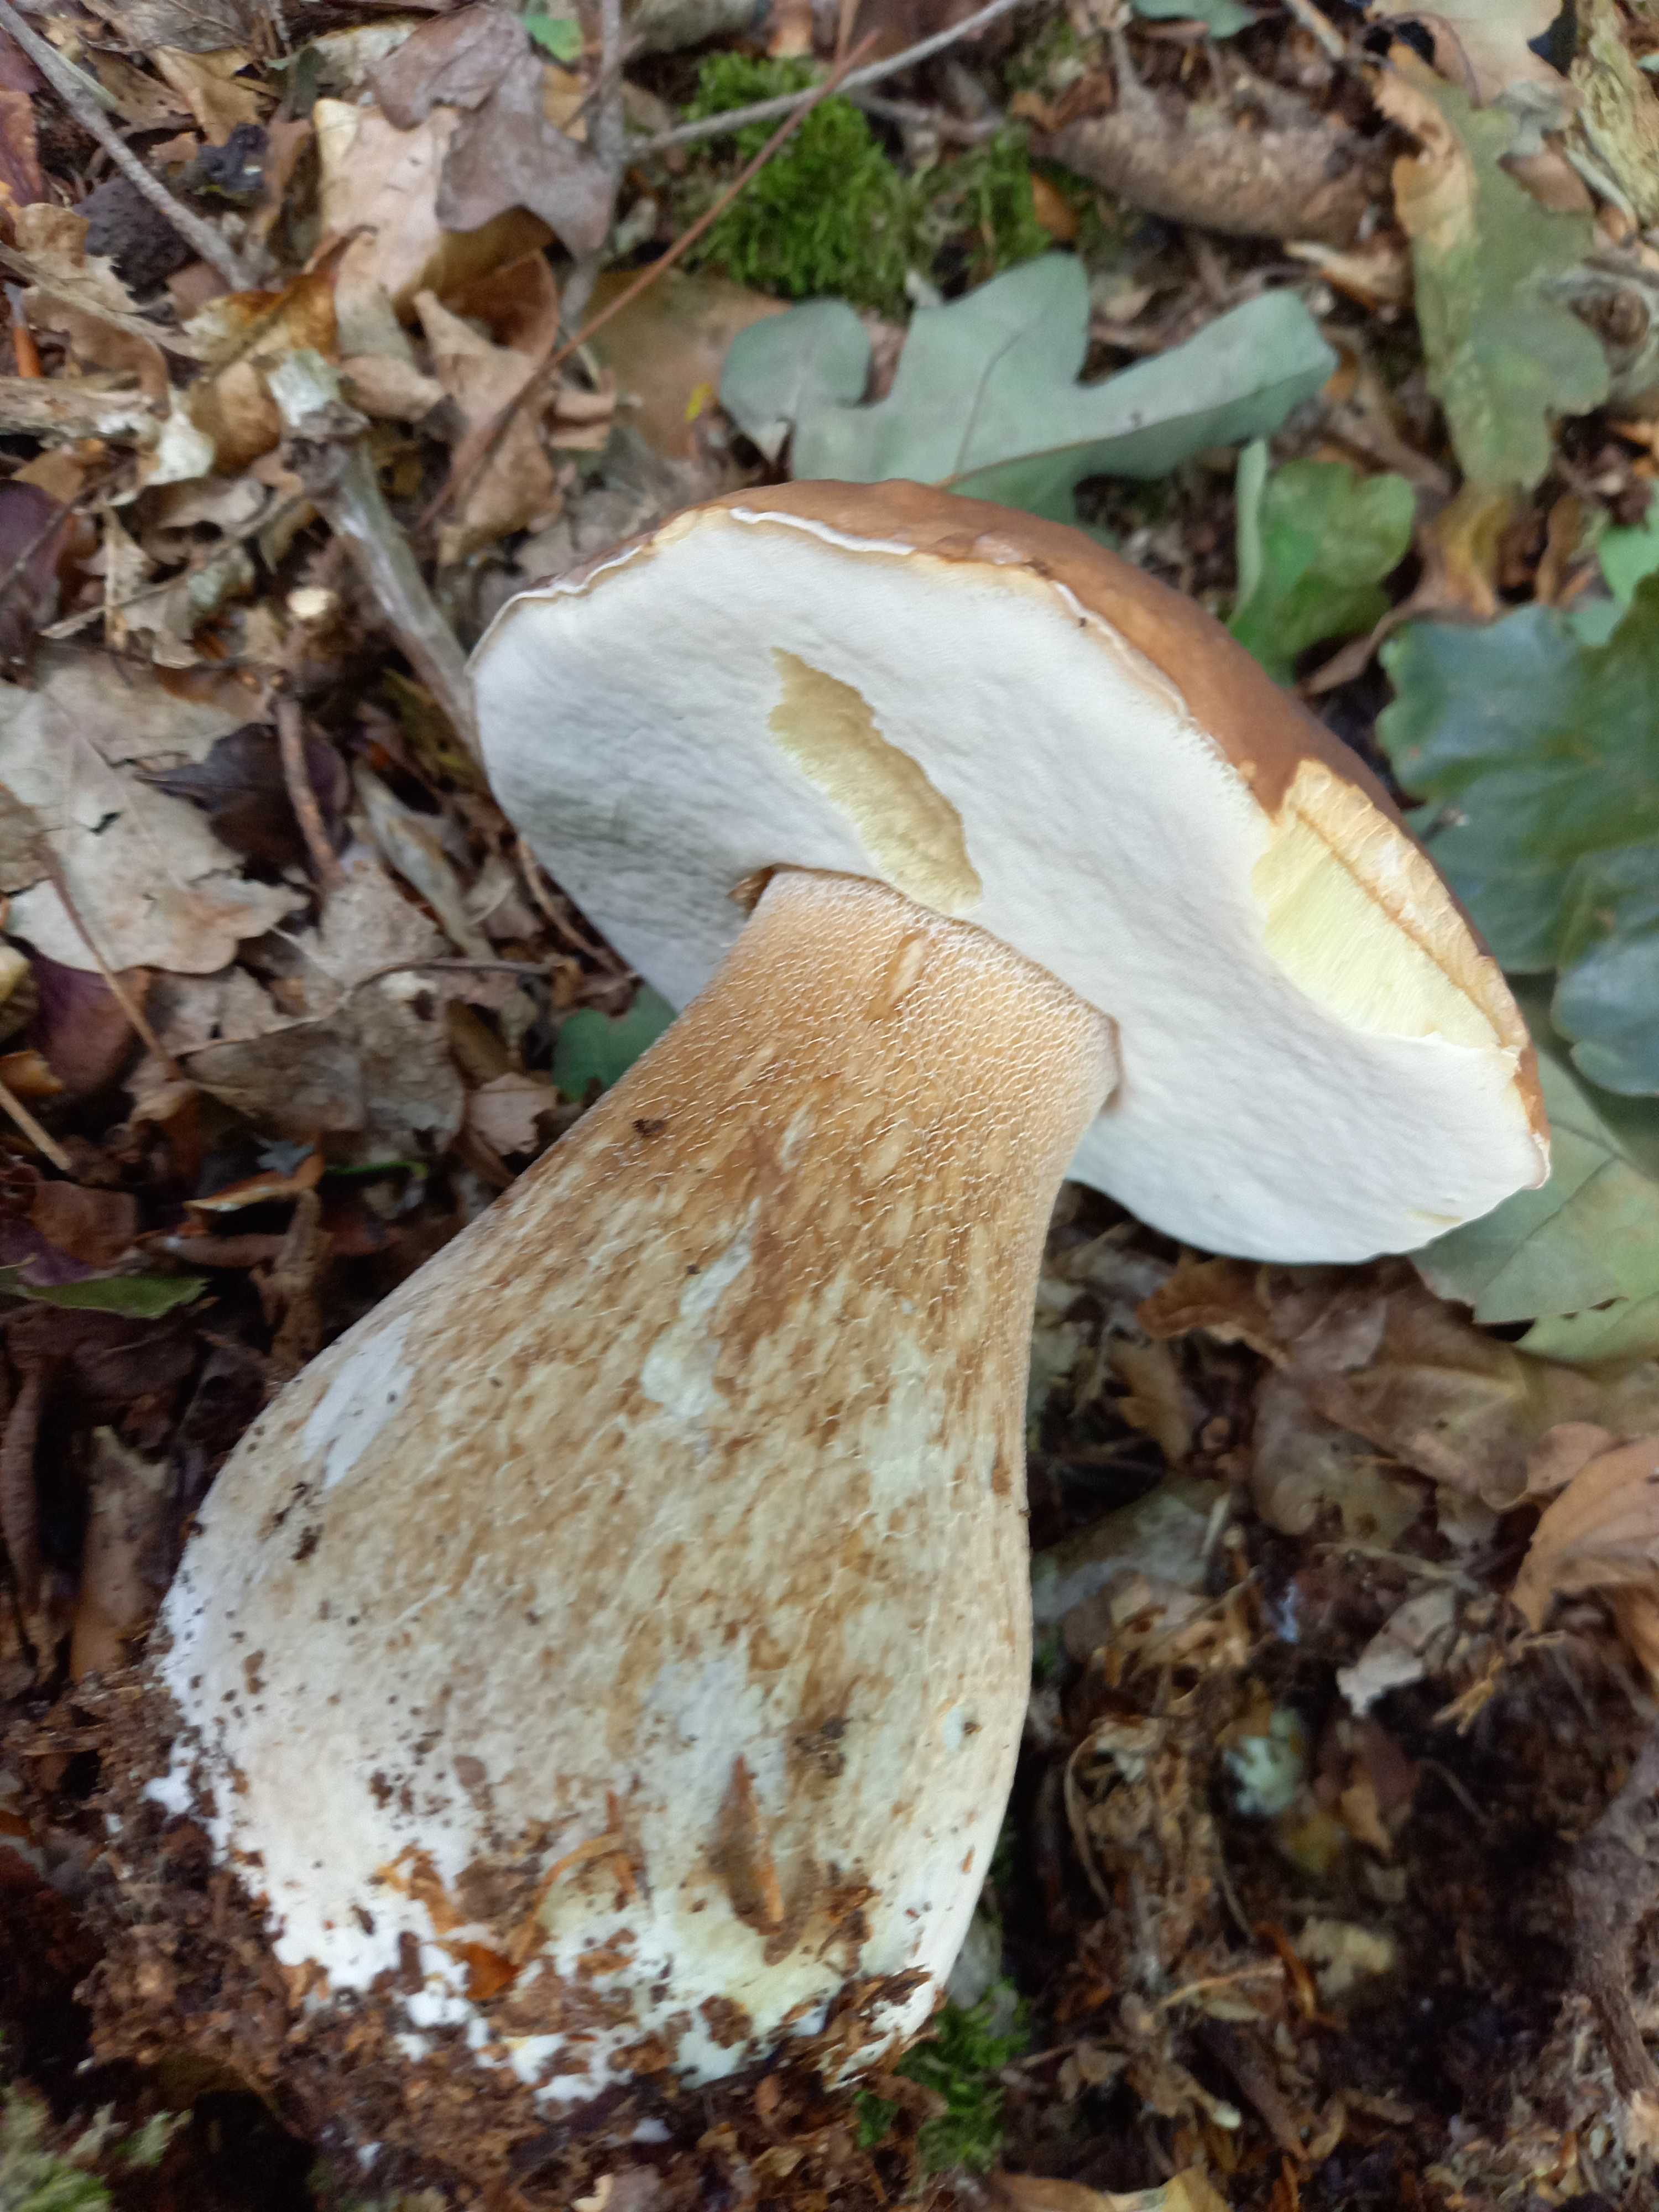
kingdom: Fungi
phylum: Basidiomycota
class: Agaricomycetes
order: Boletales
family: Boletaceae
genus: Boletus
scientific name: Boletus edulis
